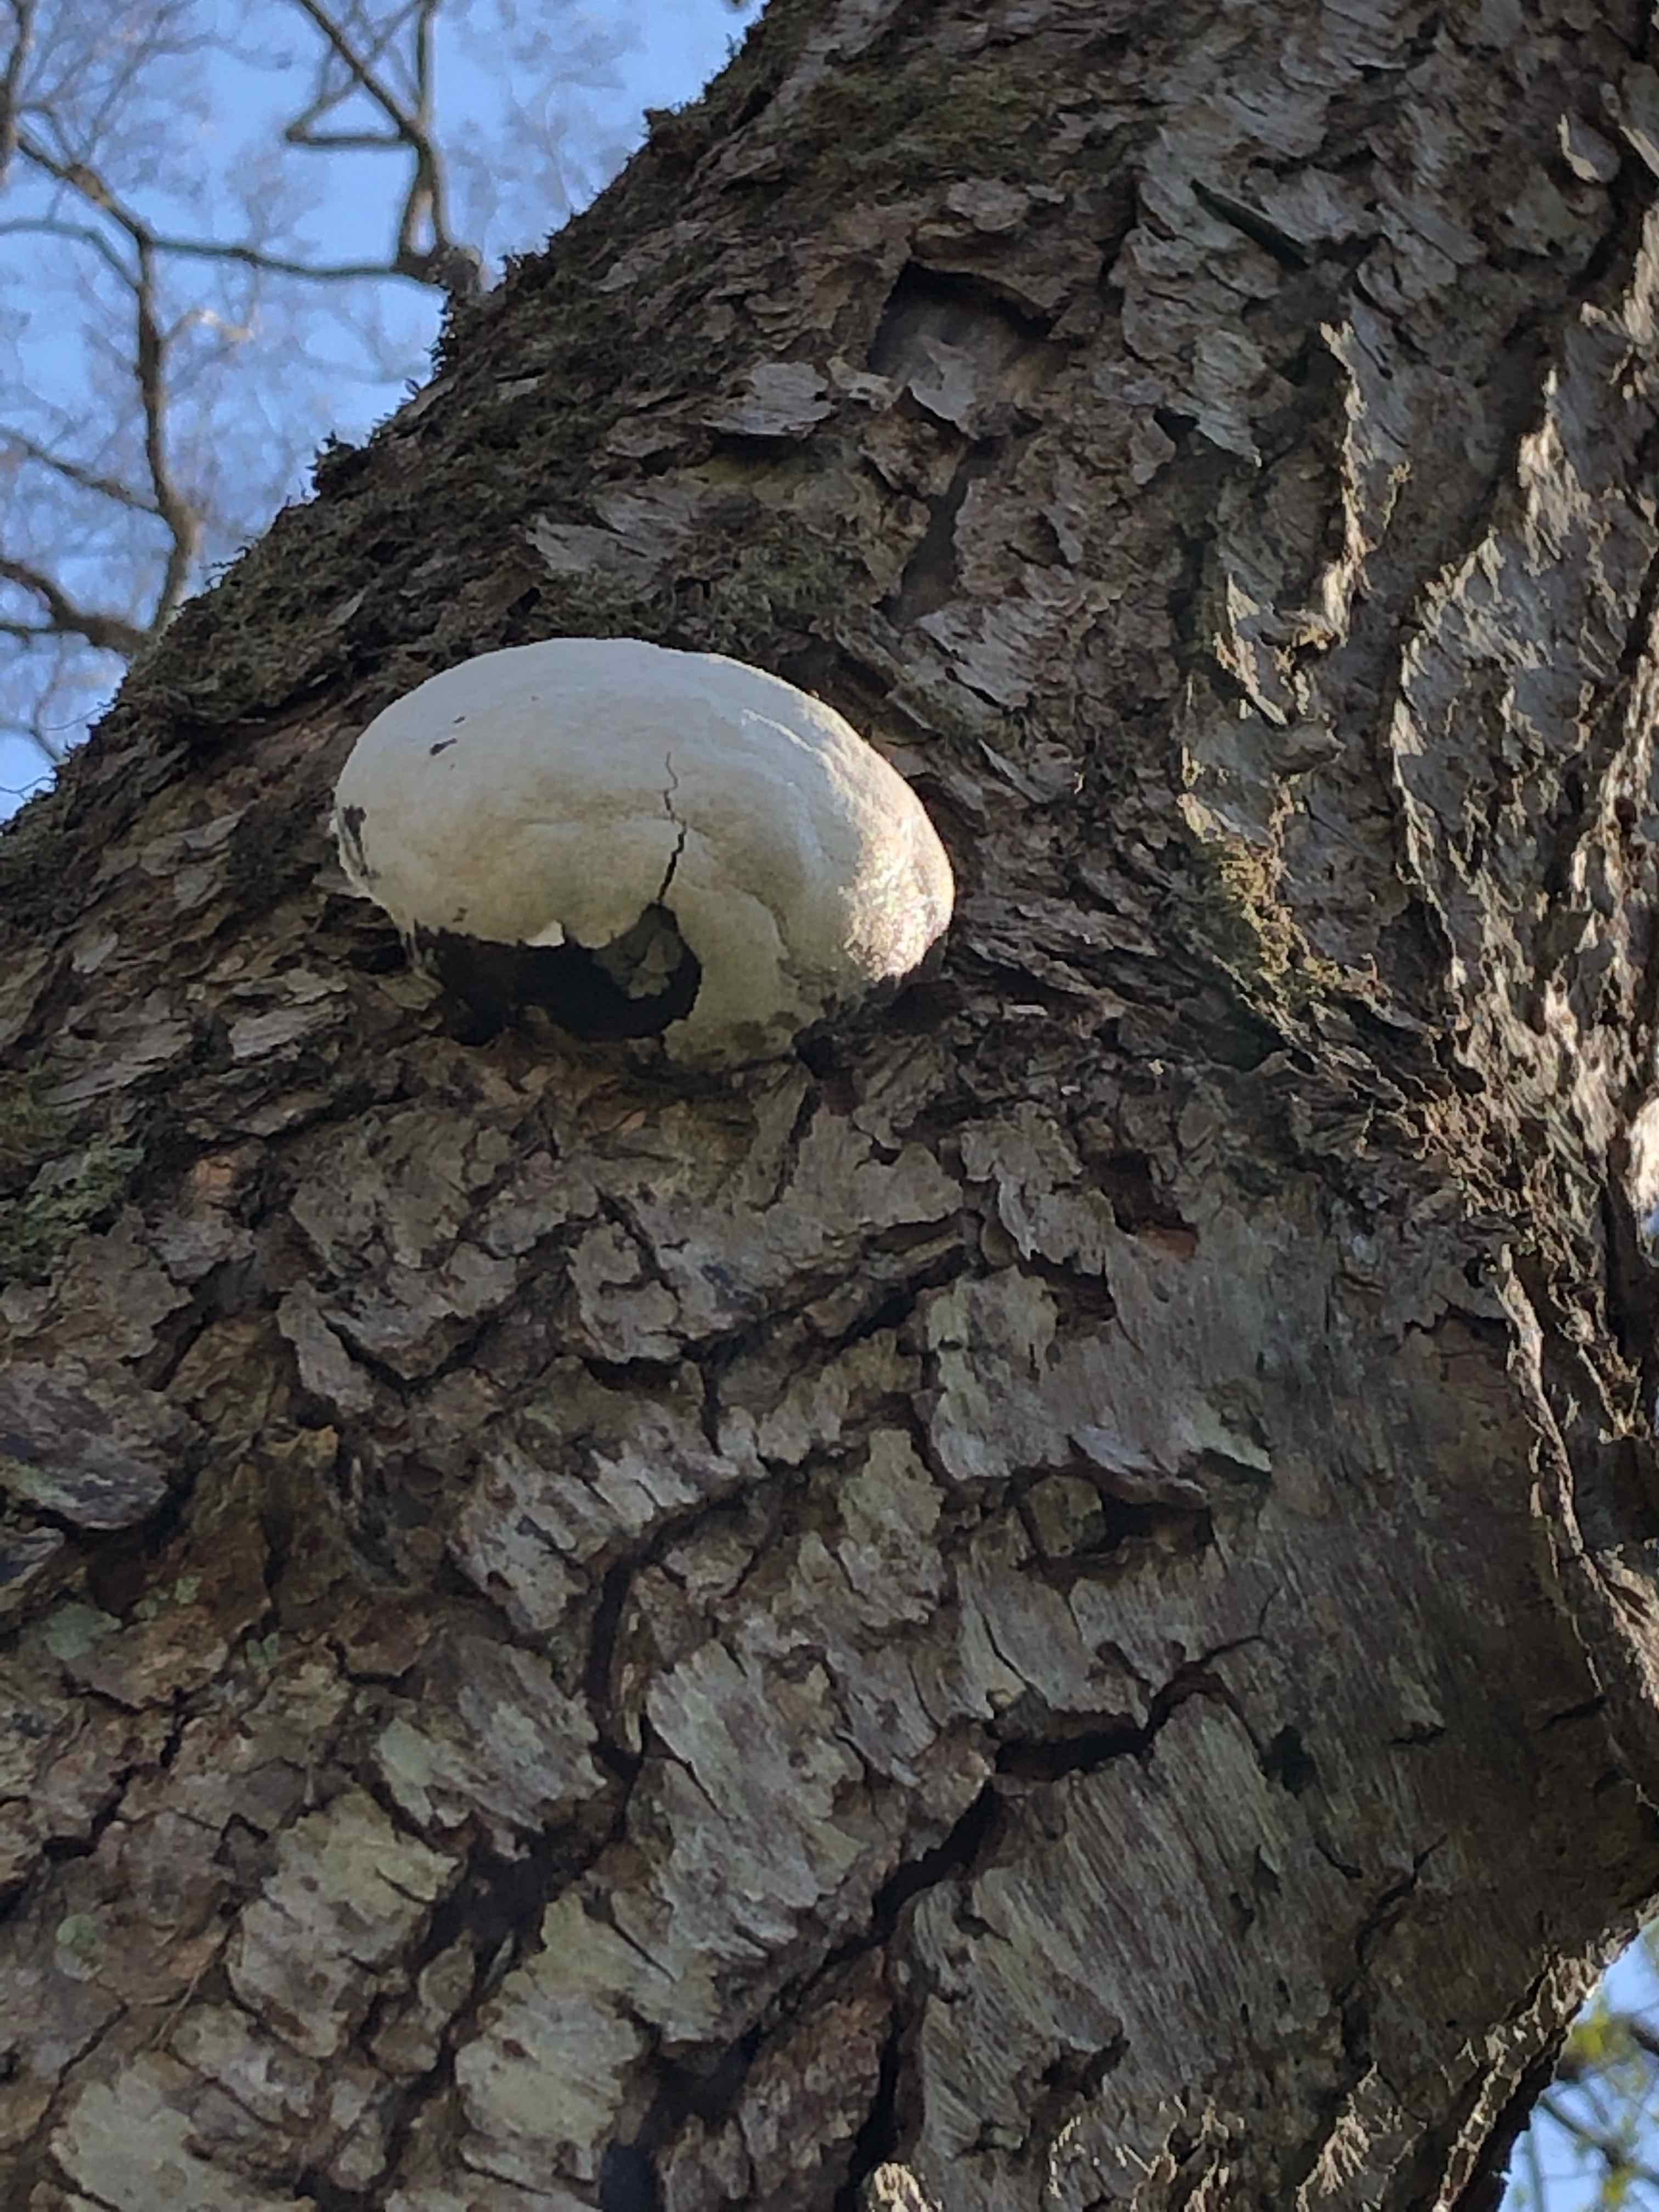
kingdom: Protozoa
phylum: Mycetozoa
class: Myxomycetes
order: Cribrariales
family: Tubiferaceae
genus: Reticularia
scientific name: Reticularia lycoperdon
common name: skinnende støvpude
